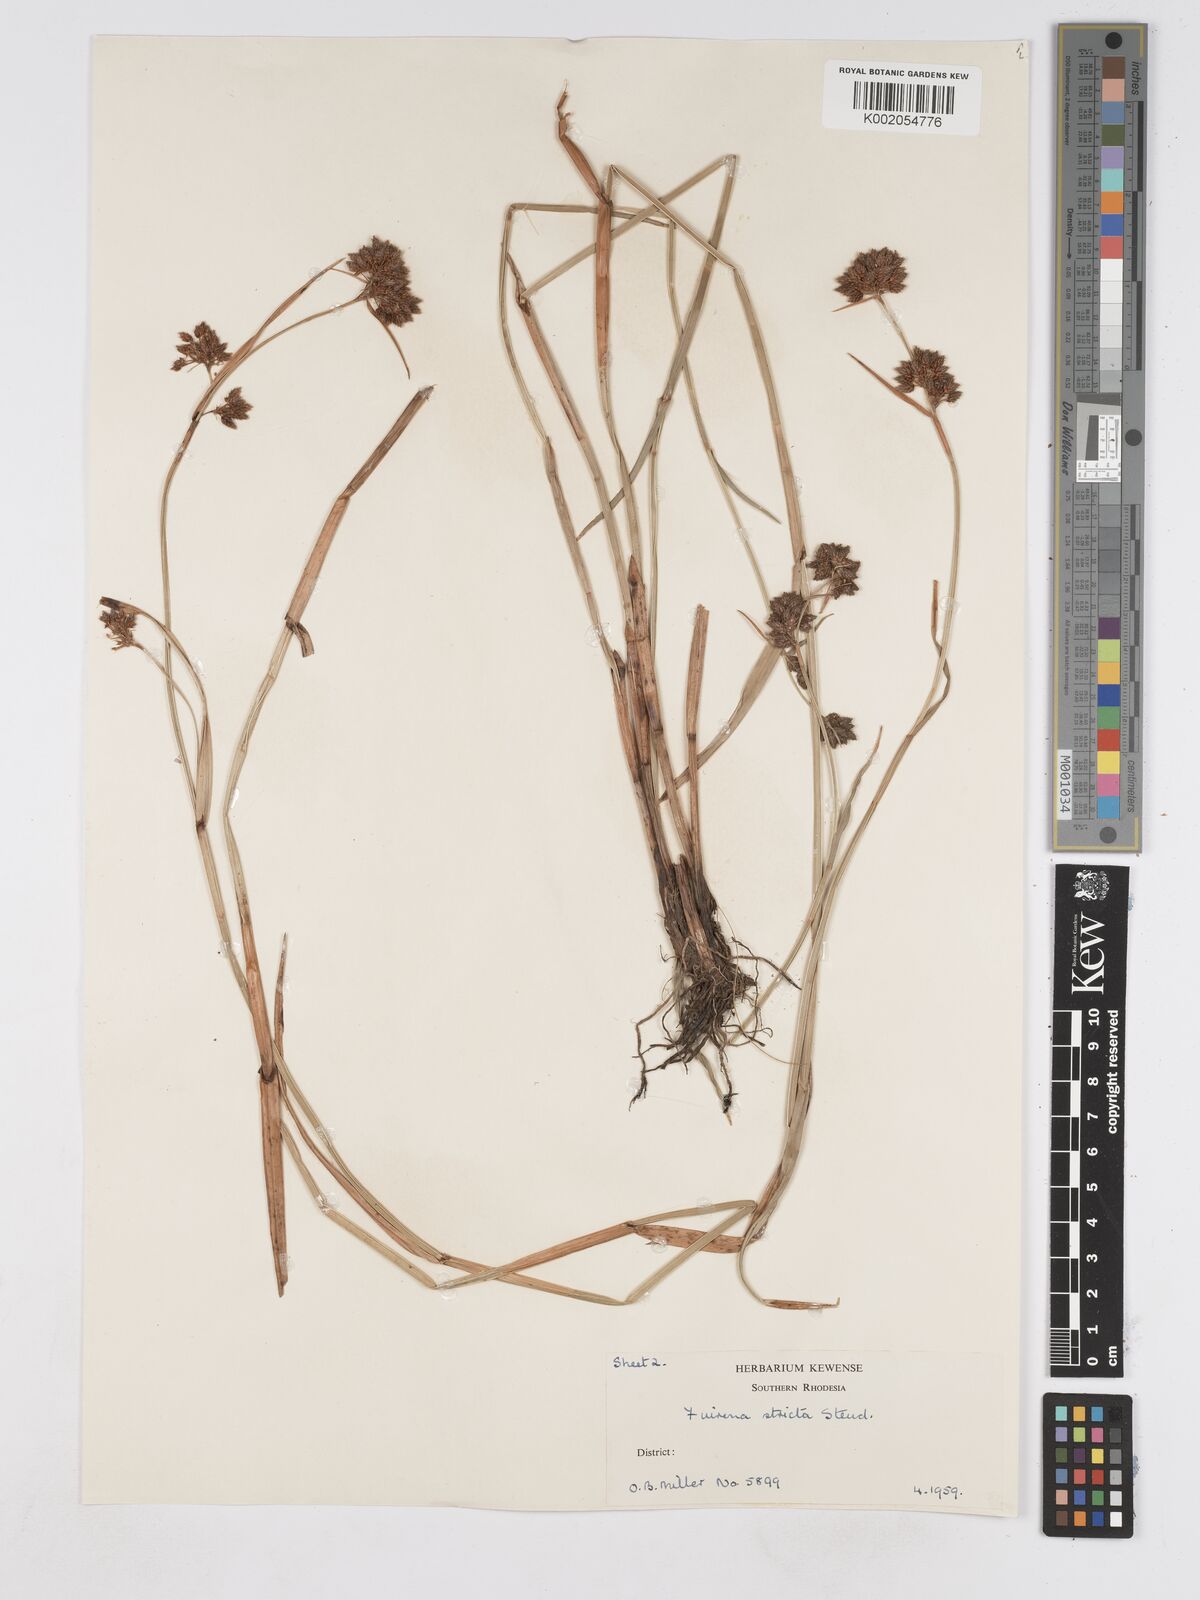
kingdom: Plantae
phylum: Tracheophyta
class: Liliopsida
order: Poales
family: Cyperaceae
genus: Fuirena
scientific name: Fuirena stricta
